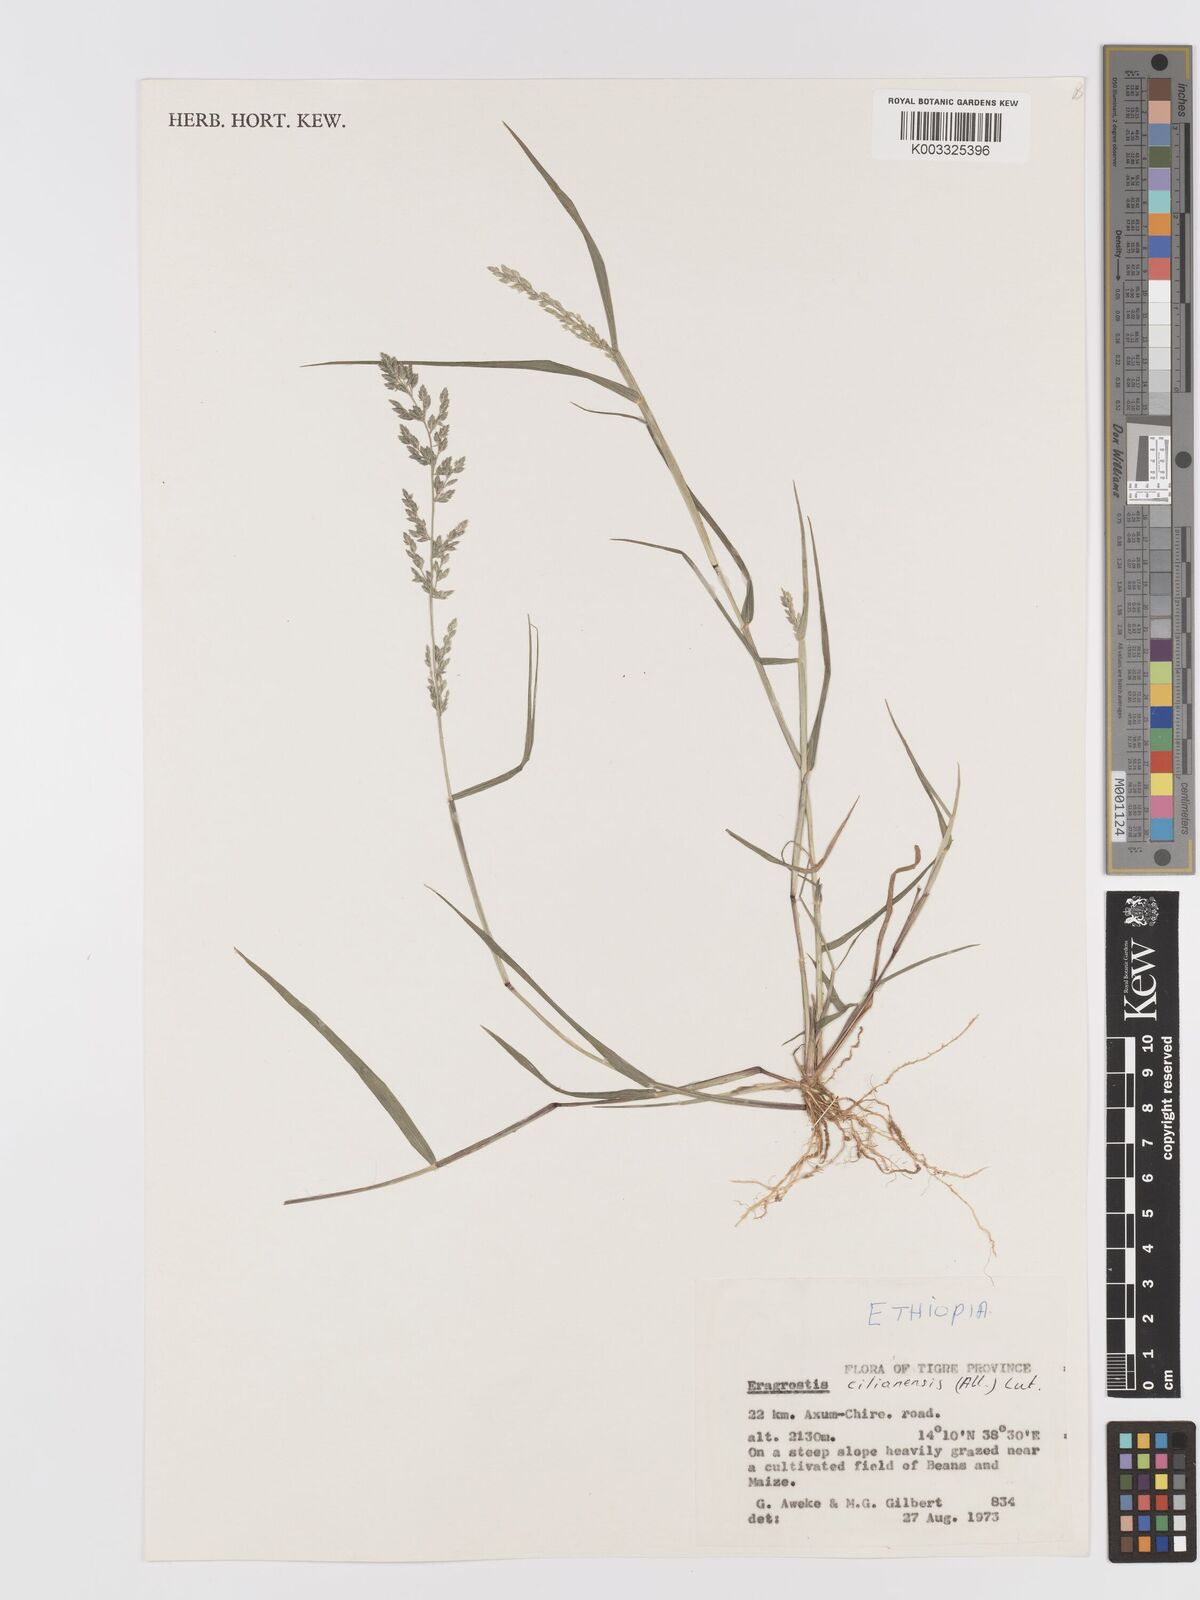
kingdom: Plantae
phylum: Tracheophyta
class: Liliopsida
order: Poales
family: Poaceae
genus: Eragrostis
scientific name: Eragrostis cilianensis
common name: Stinkgrass
